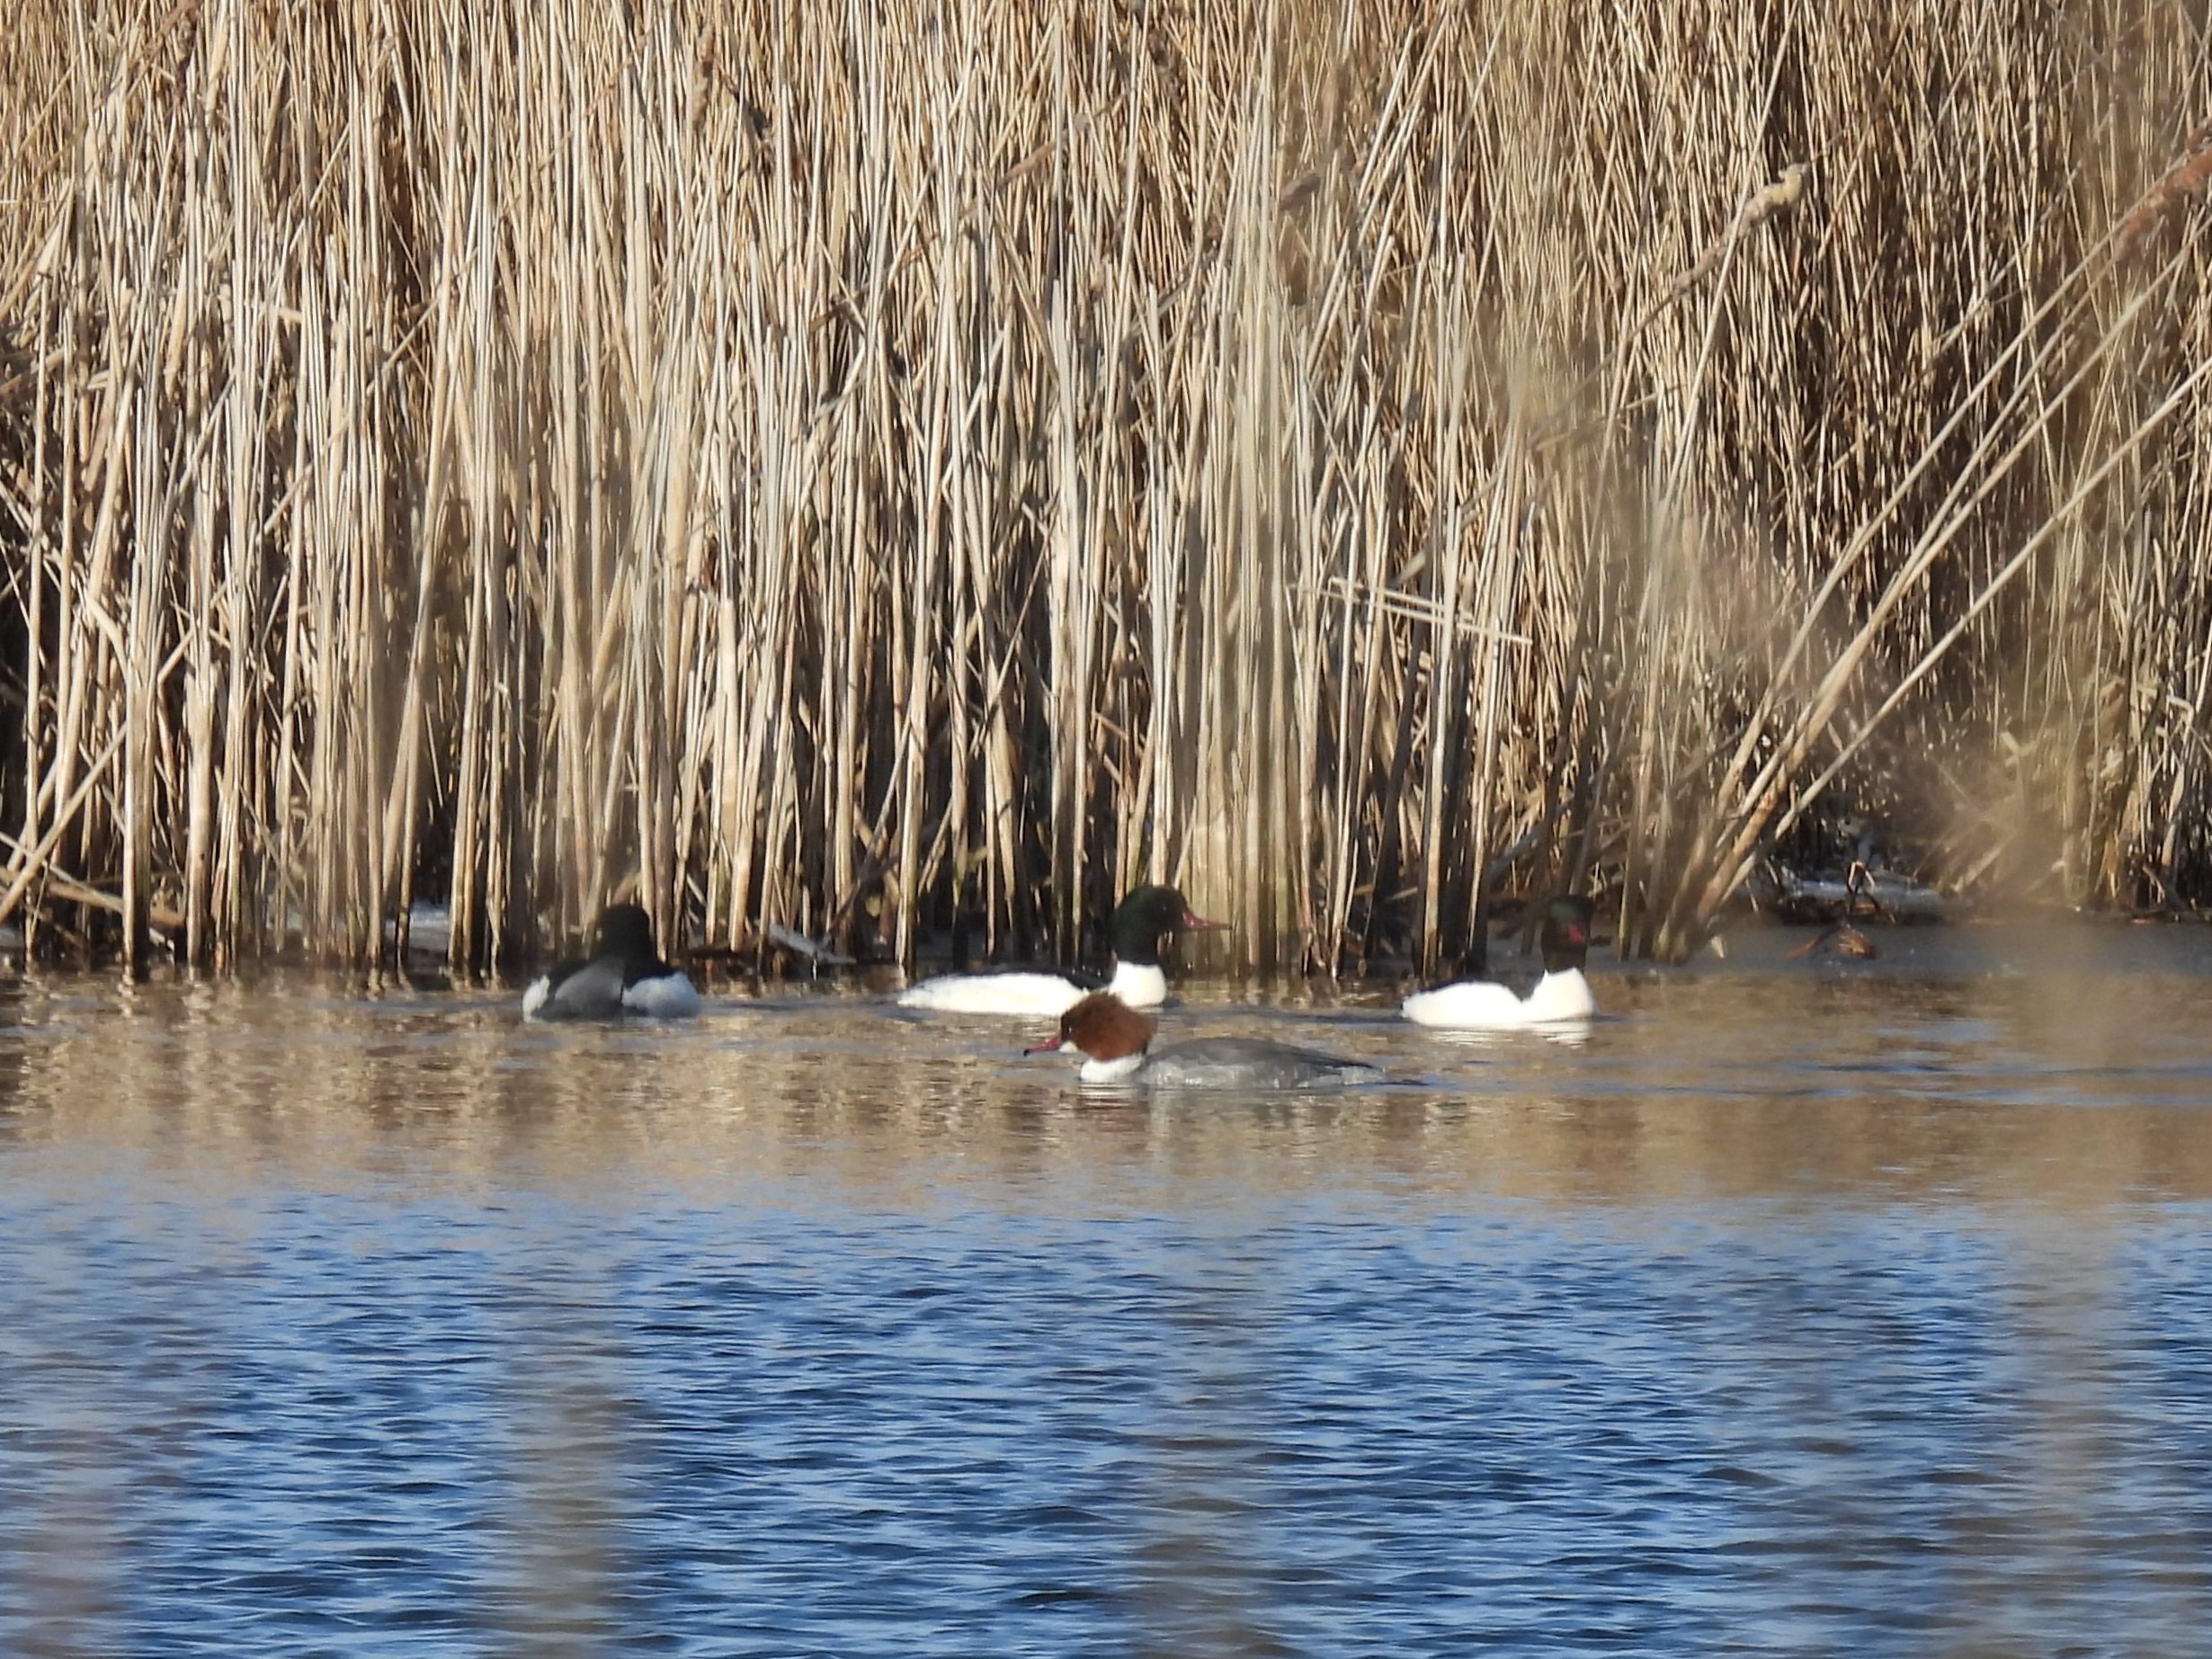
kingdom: Animalia
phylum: Chordata
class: Aves
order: Anseriformes
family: Anatidae
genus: Mergus
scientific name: Mergus merganser
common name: Stor skallesluger
